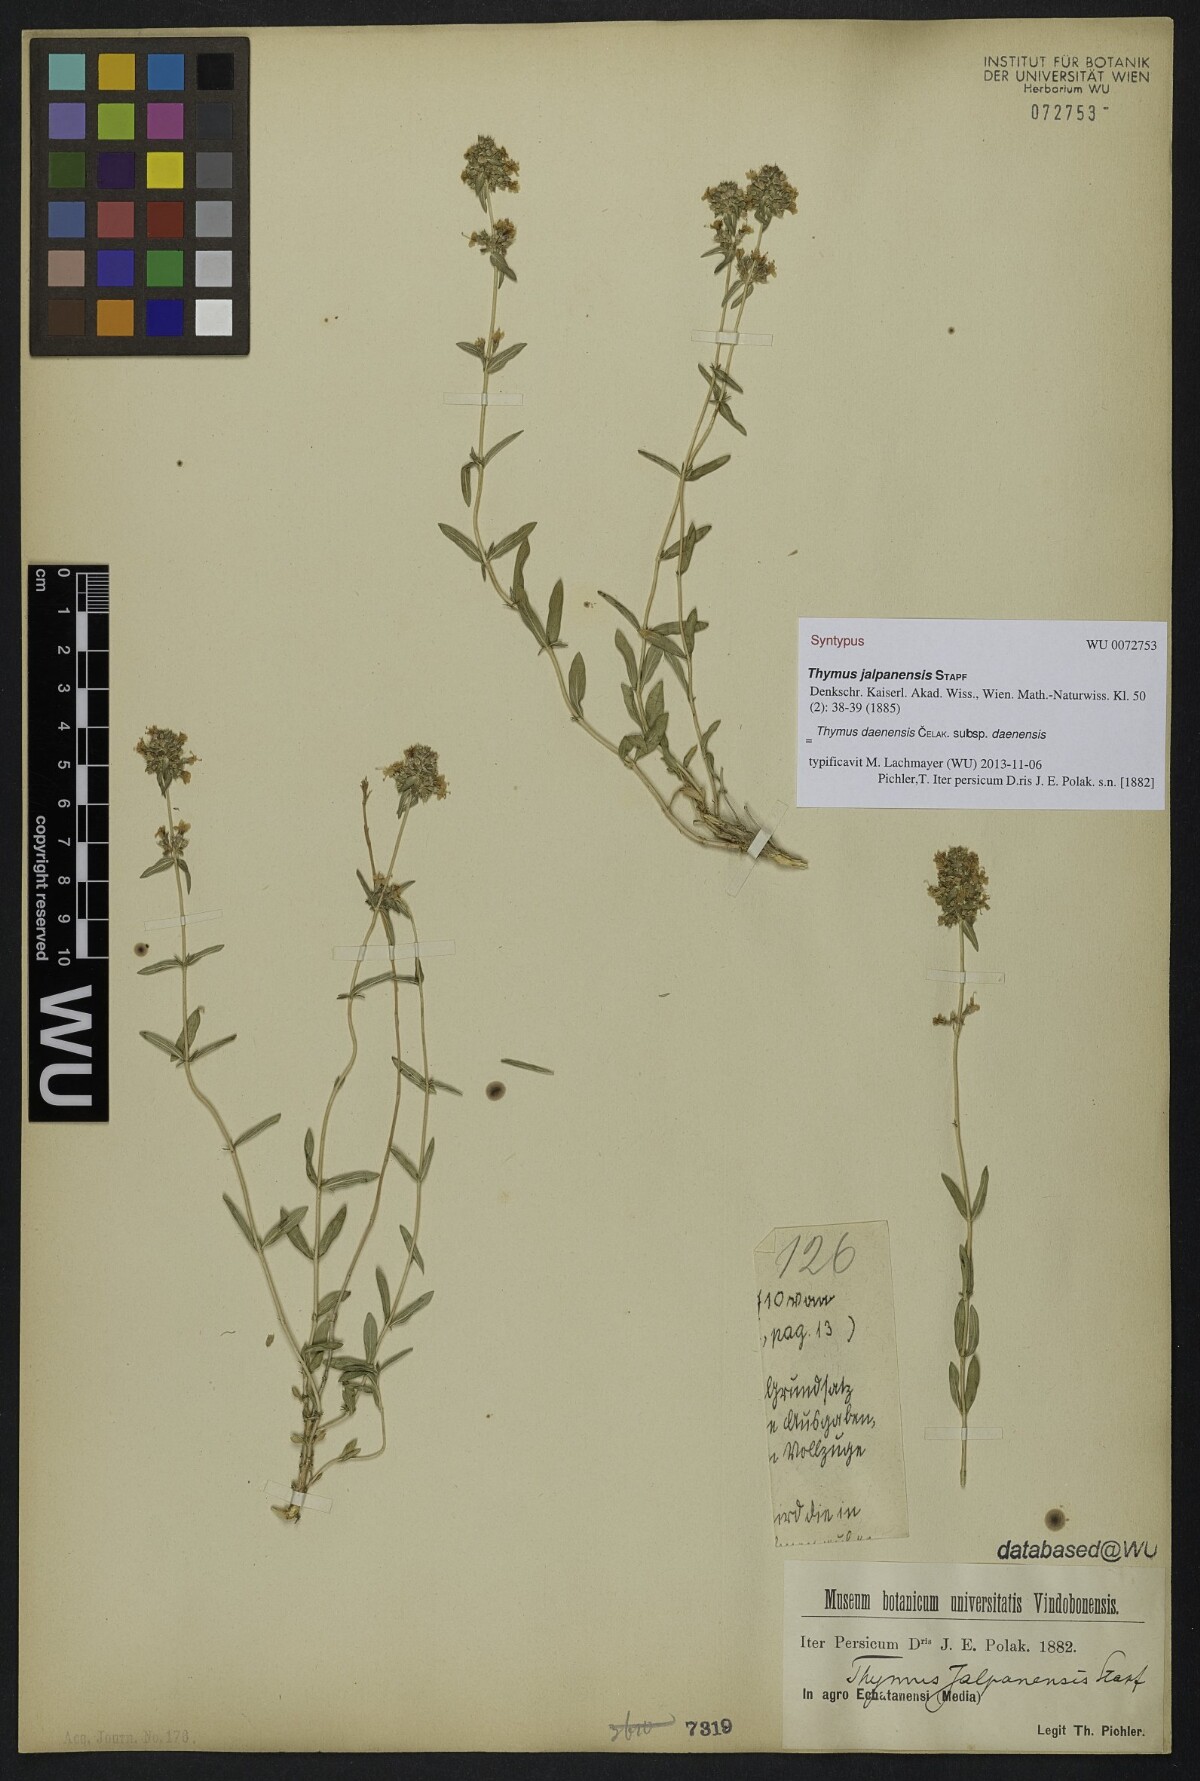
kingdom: Plantae
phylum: Tracheophyta
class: Magnoliopsida
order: Lamiales
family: Lamiaceae
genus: Thymus
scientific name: Thymus daenensis
